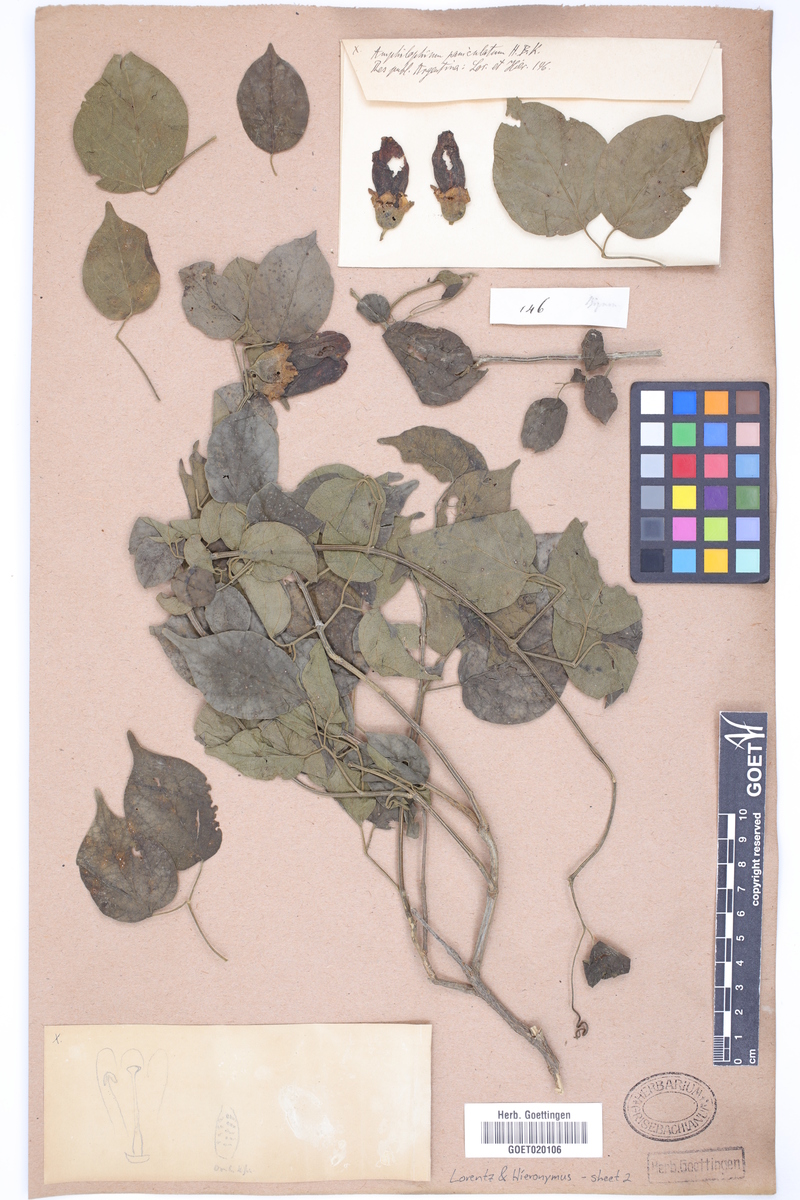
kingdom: Plantae
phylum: Tracheophyta
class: Magnoliopsida
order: Lamiales
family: Bignoniaceae
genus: Amphilophium
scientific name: Amphilophium paniculatum
